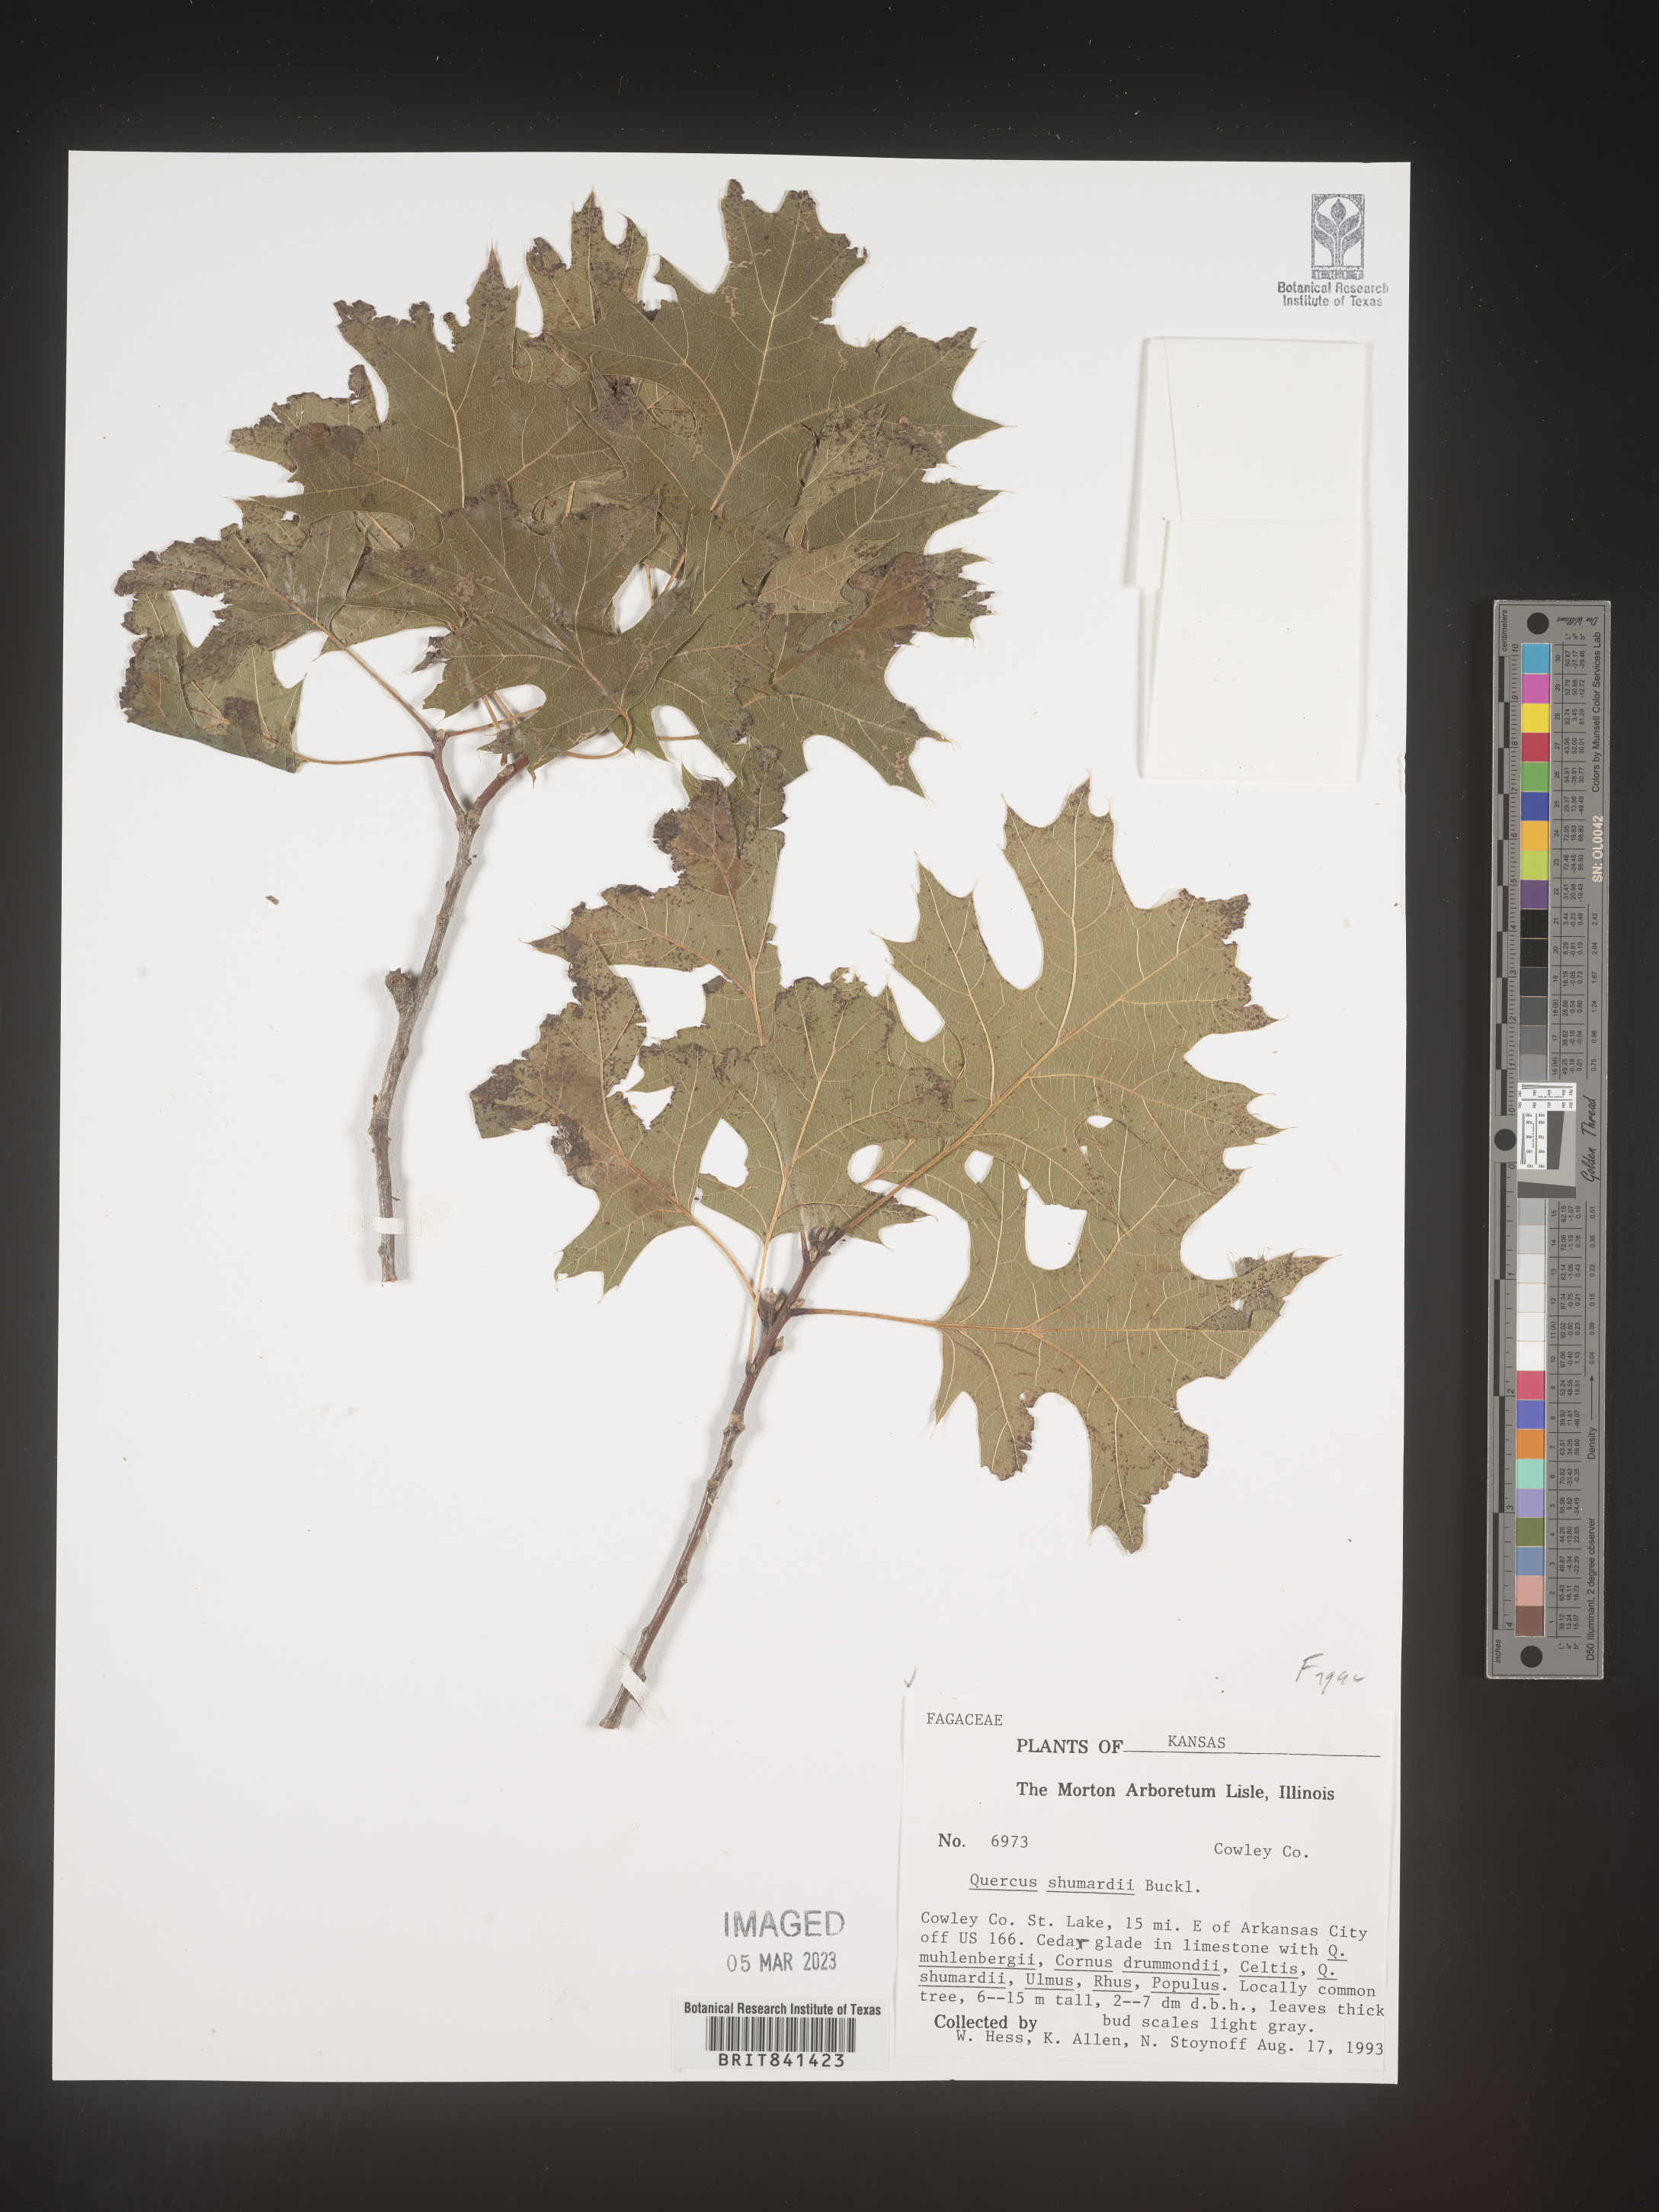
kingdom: Plantae
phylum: Tracheophyta
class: Magnoliopsida
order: Fagales
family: Fagaceae
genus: Quercus
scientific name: Quercus shumardii
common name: Shumard oak
